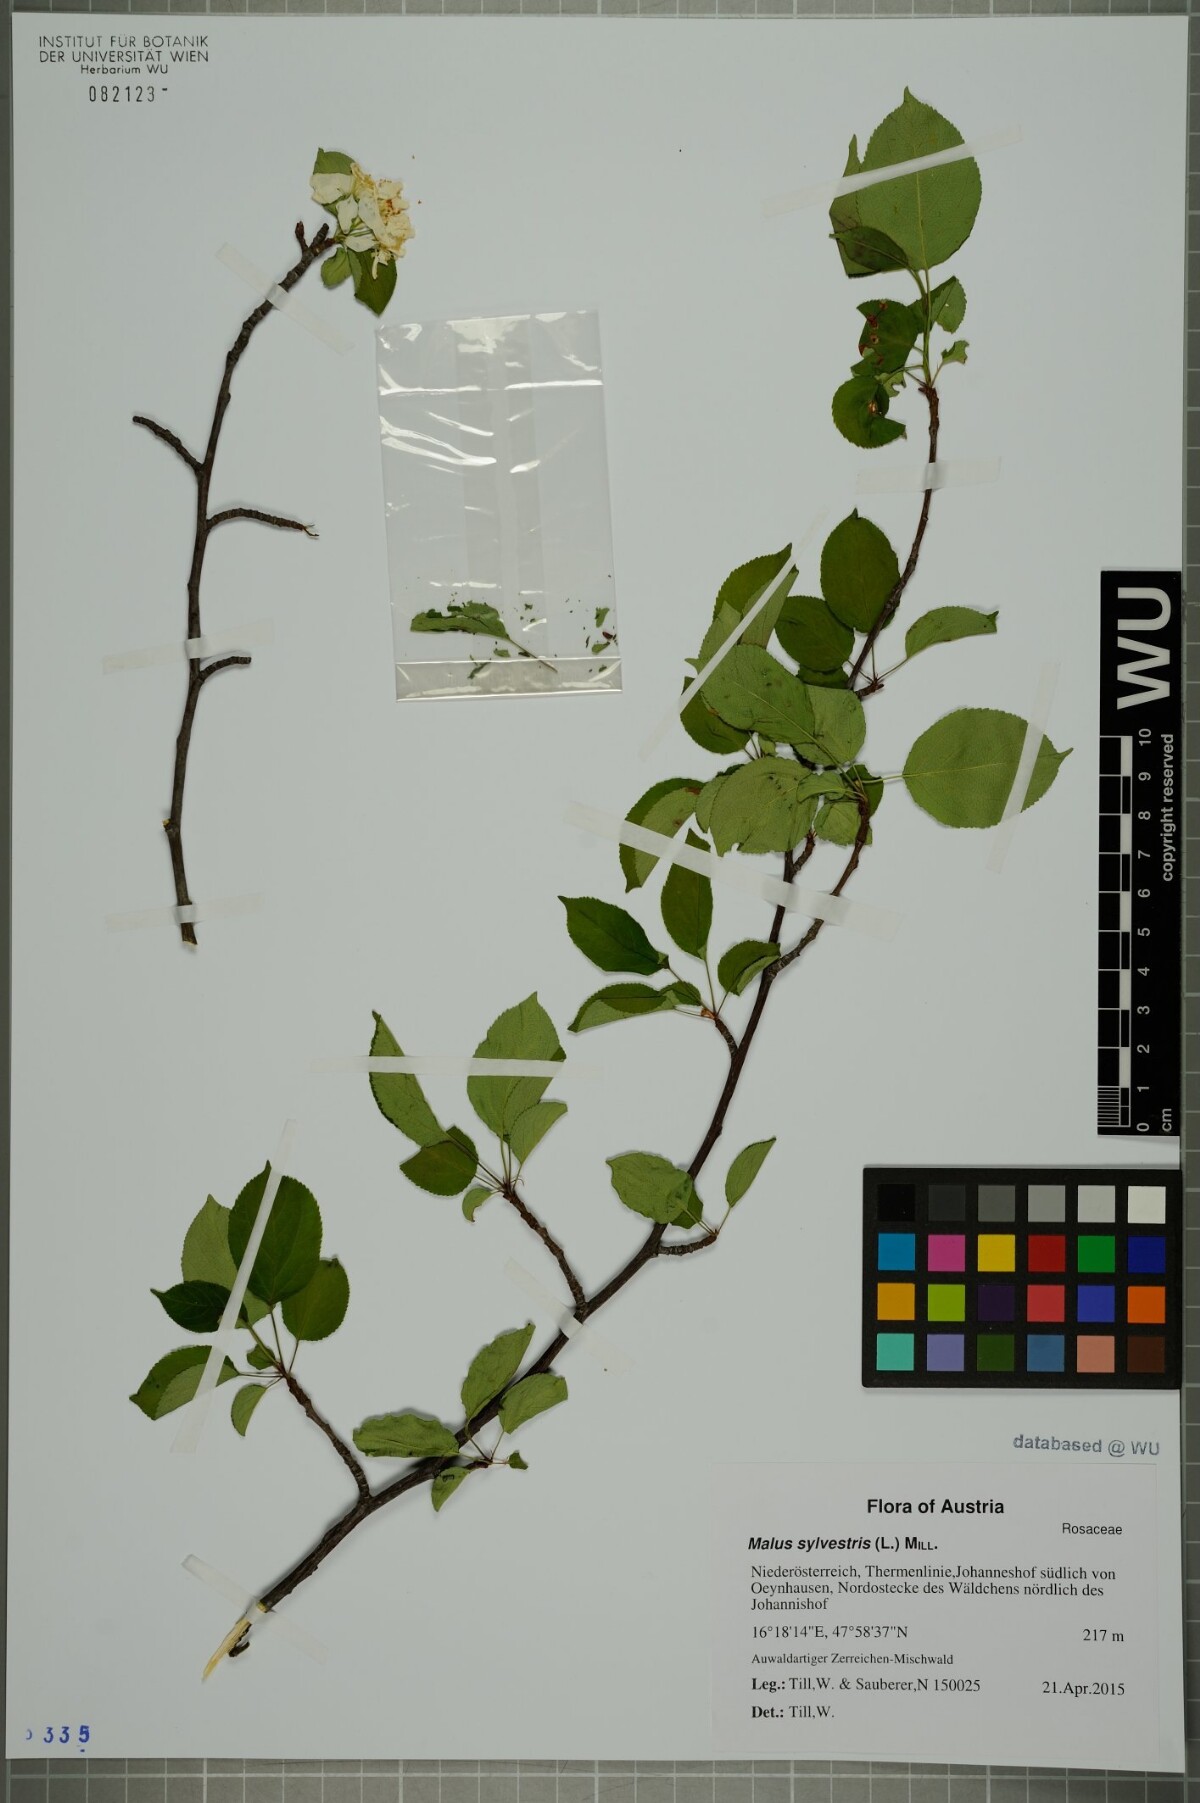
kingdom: Plantae
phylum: Tracheophyta
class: Magnoliopsida
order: Rosales
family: Rosaceae
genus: Malus
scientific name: Malus sylvestris
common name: Crab apple
